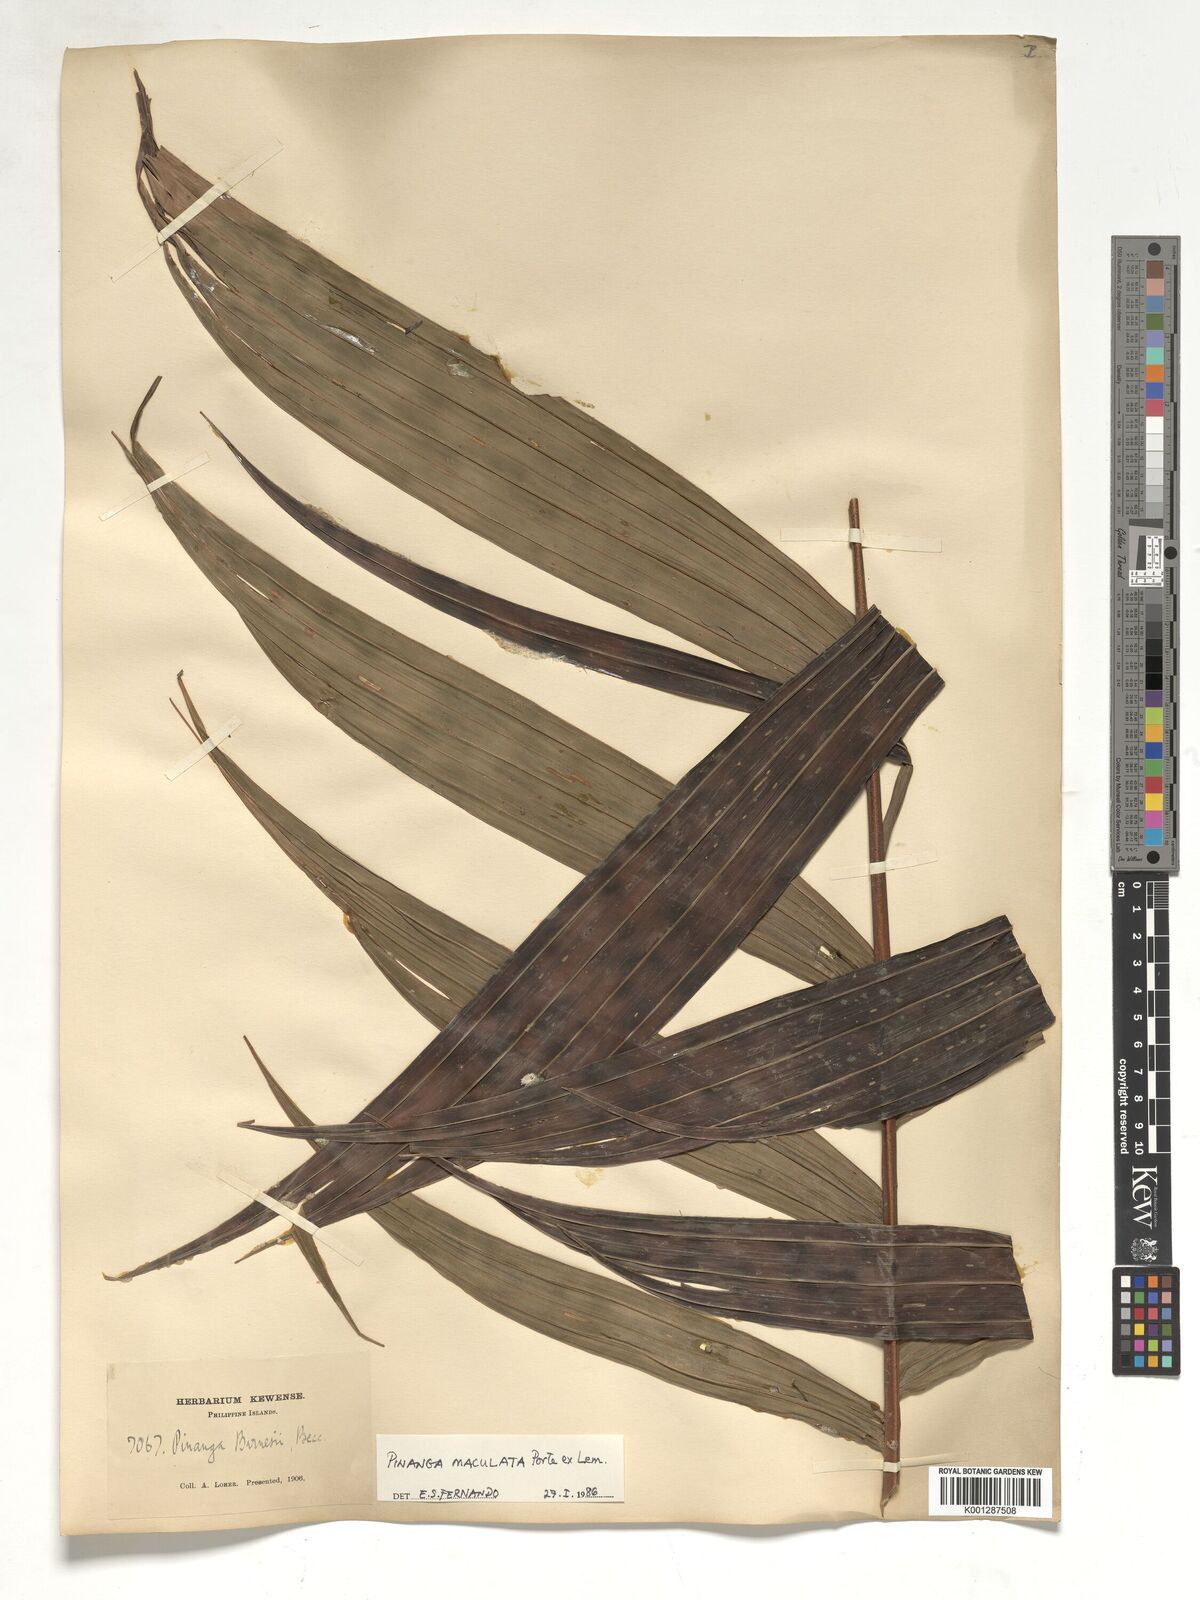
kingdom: Plantae
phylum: Tracheophyta
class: Liliopsida
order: Arecales
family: Arecaceae
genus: Pinanga
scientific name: Pinanga maculata
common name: Tiger palm
